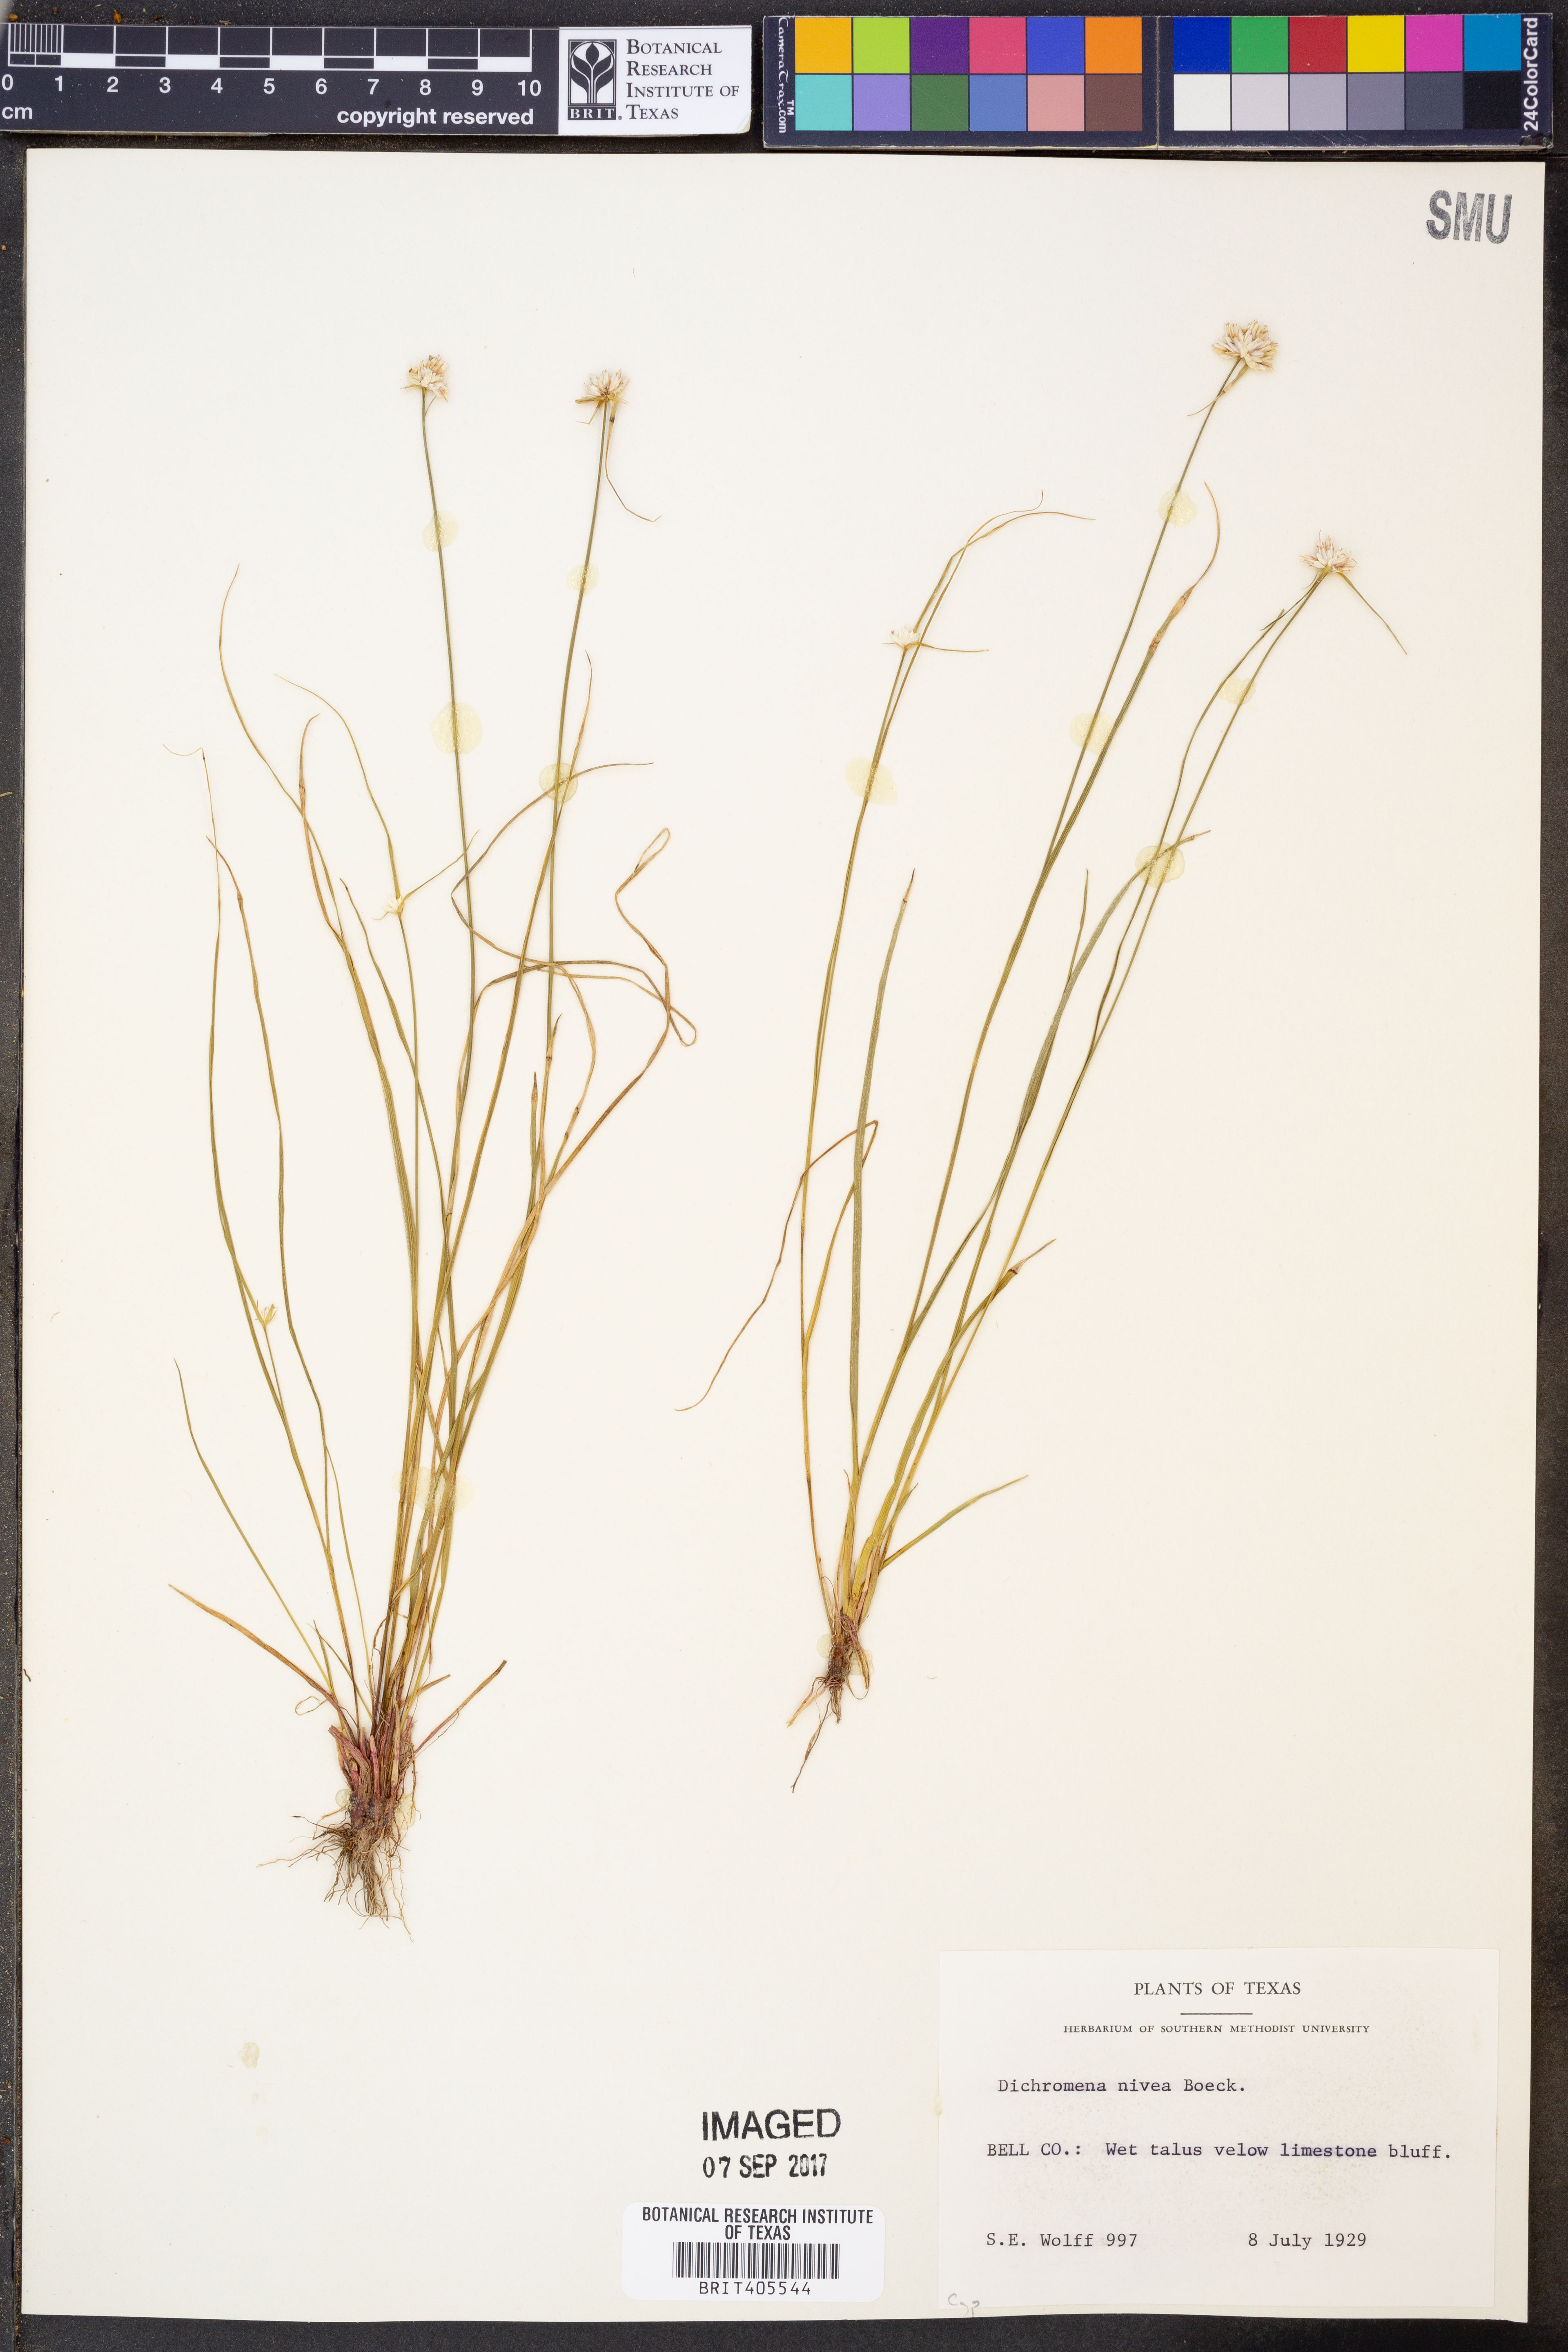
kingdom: Plantae
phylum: Tracheophyta
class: Liliopsida
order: Poales
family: Cyperaceae
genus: Rhynchospora
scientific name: Rhynchospora nivea
